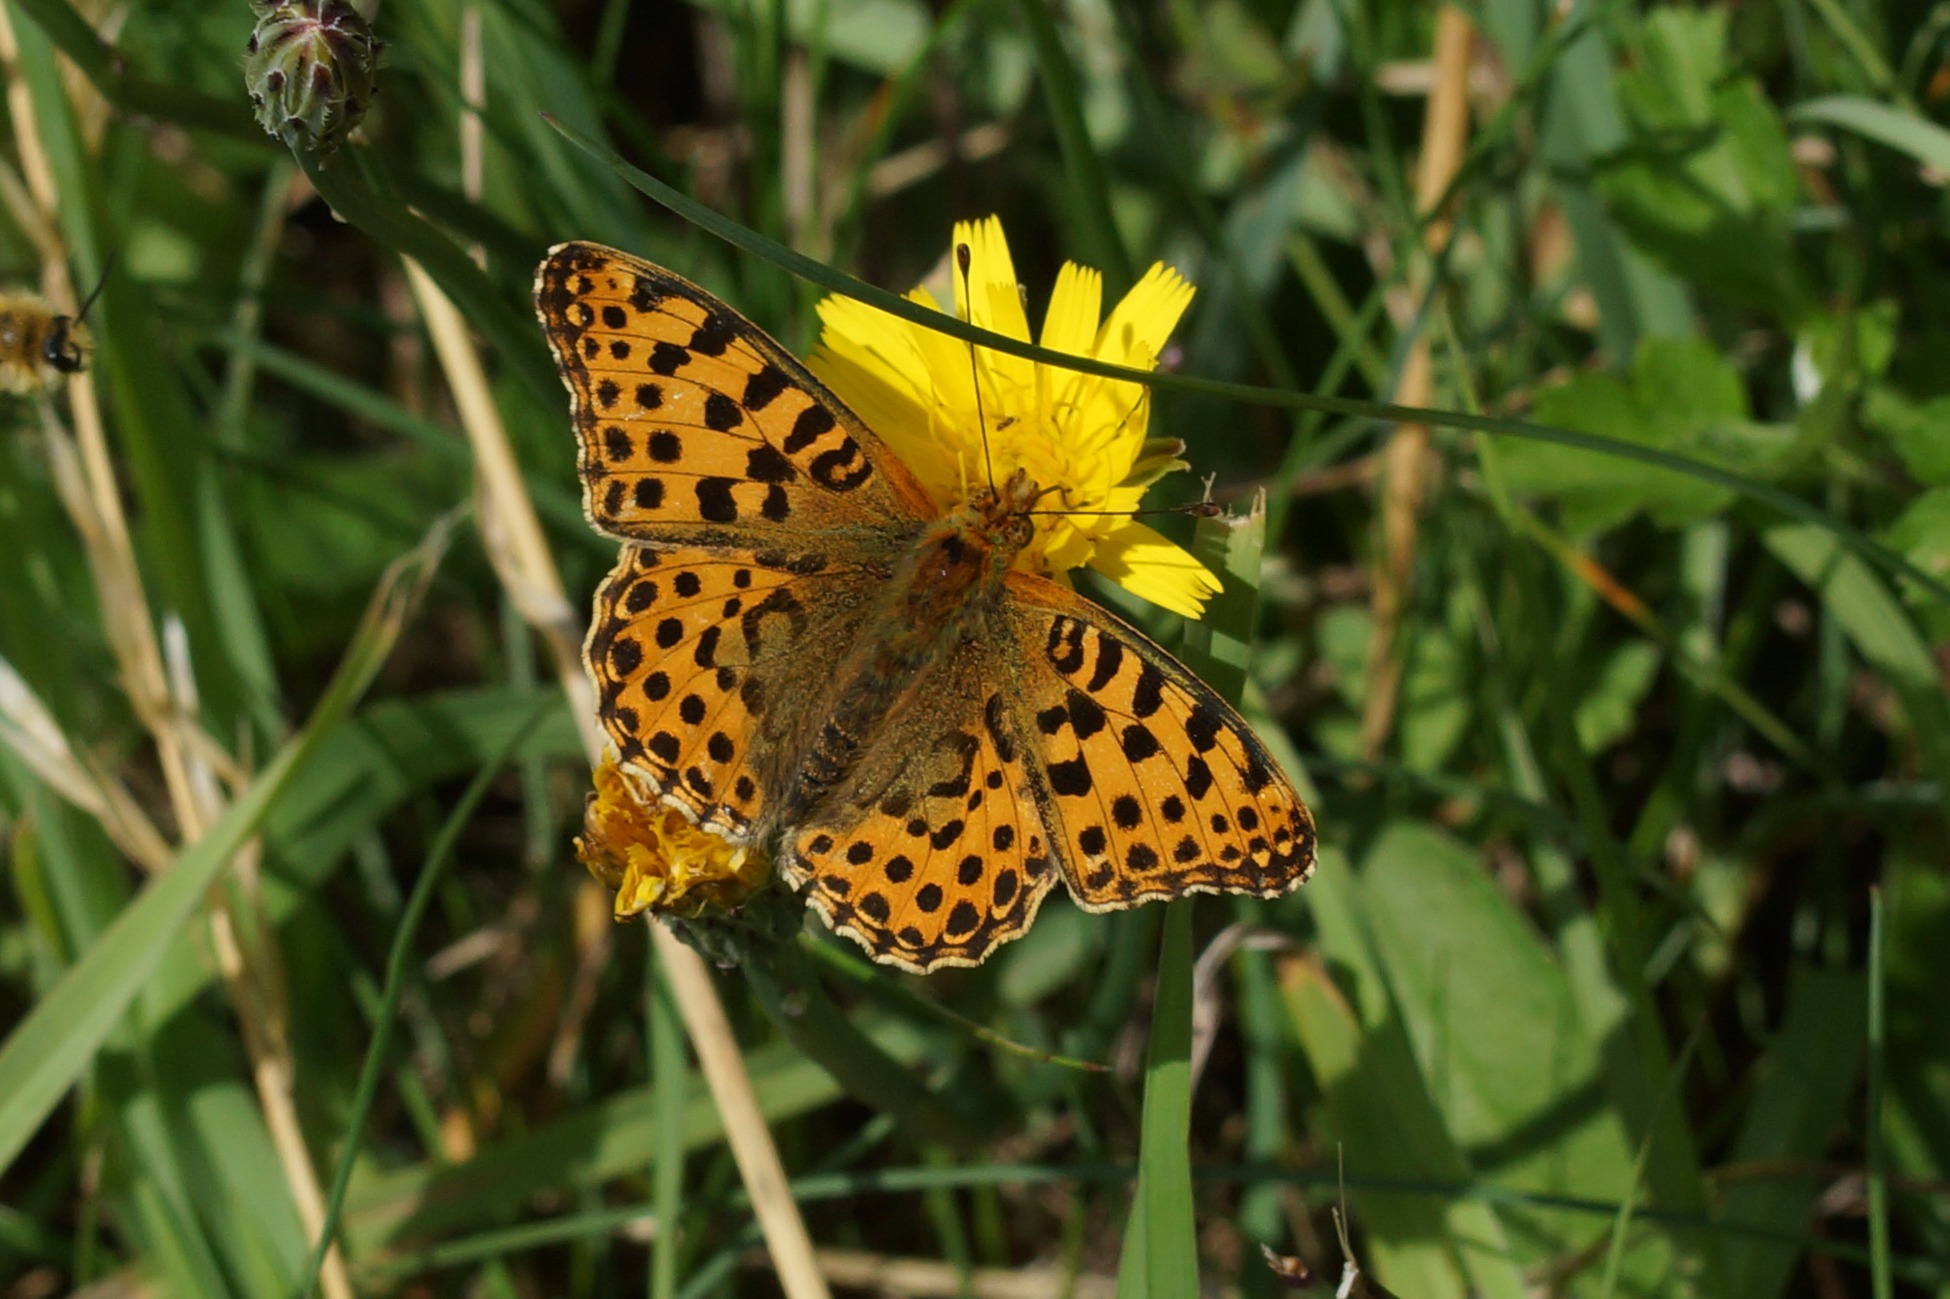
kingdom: Animalia
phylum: Arthropoda
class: Insecta
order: Lepidoptera
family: Nymphalidae
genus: Issoria
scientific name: Issoria lathonia
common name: Storplettet perlemorsommerfugl
